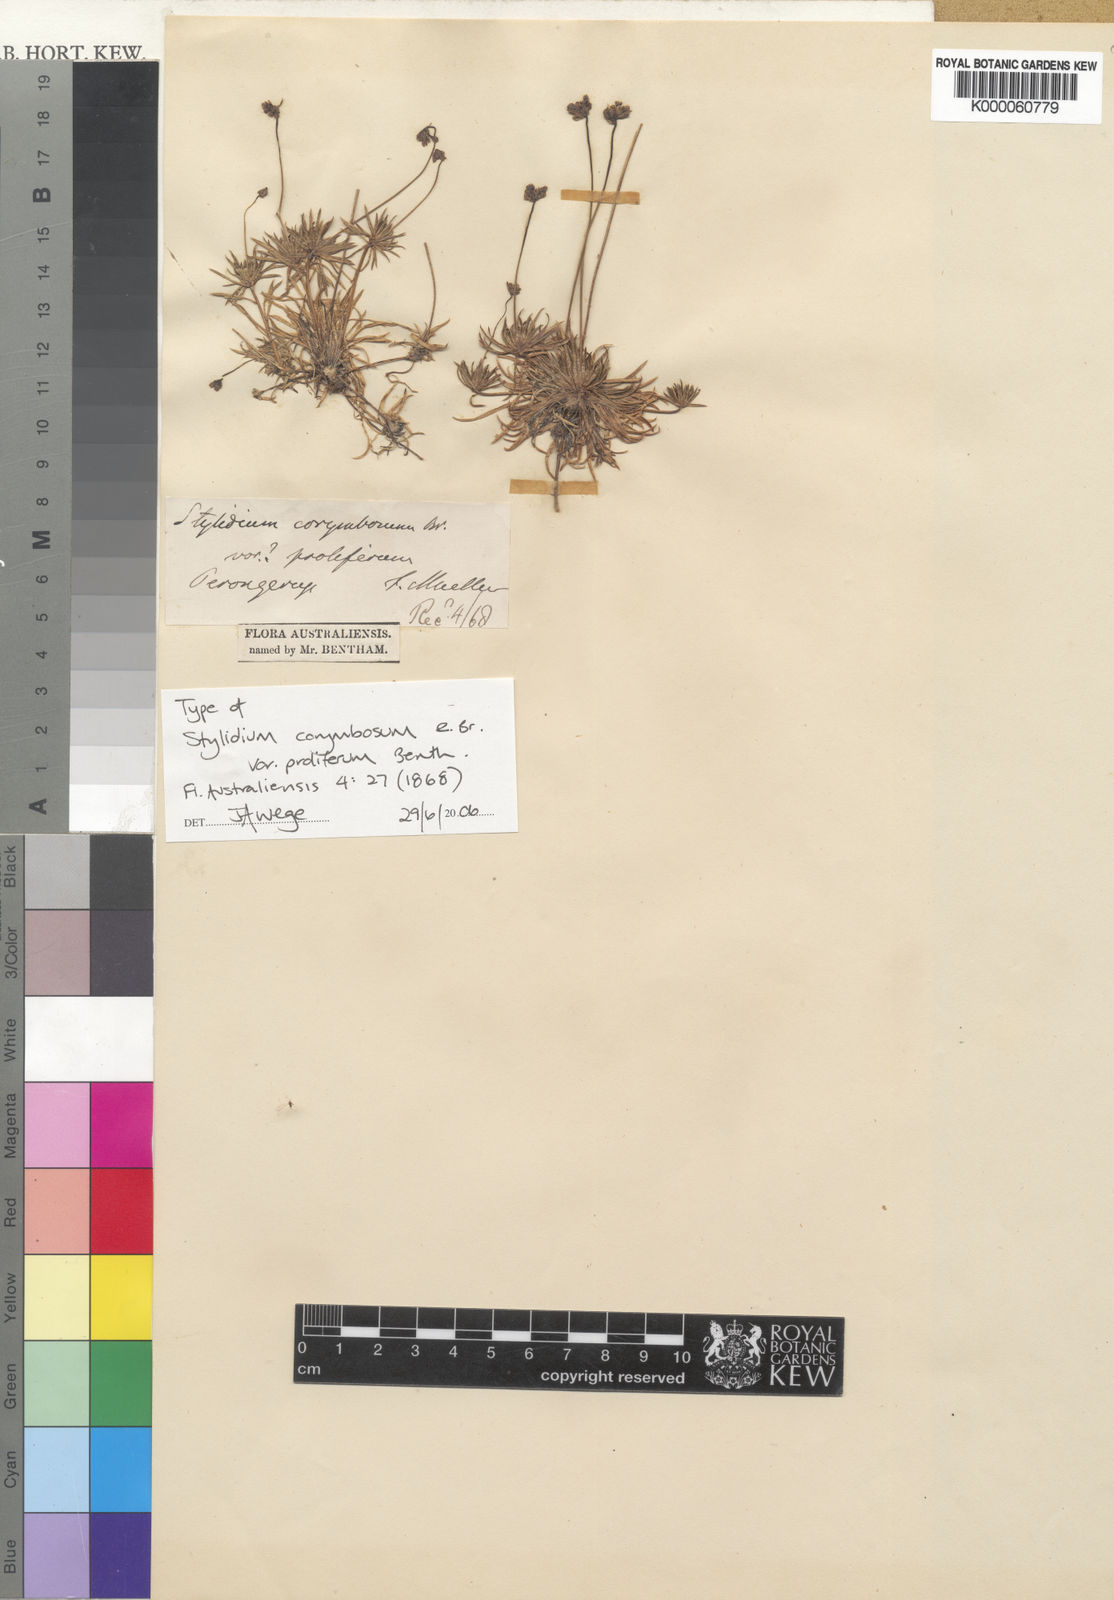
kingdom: Plantae
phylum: Tracheophyta
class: Magnoliopsida
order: Asterales
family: Stylidiaceae
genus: Stylidium
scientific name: Stylidium corymbosum
